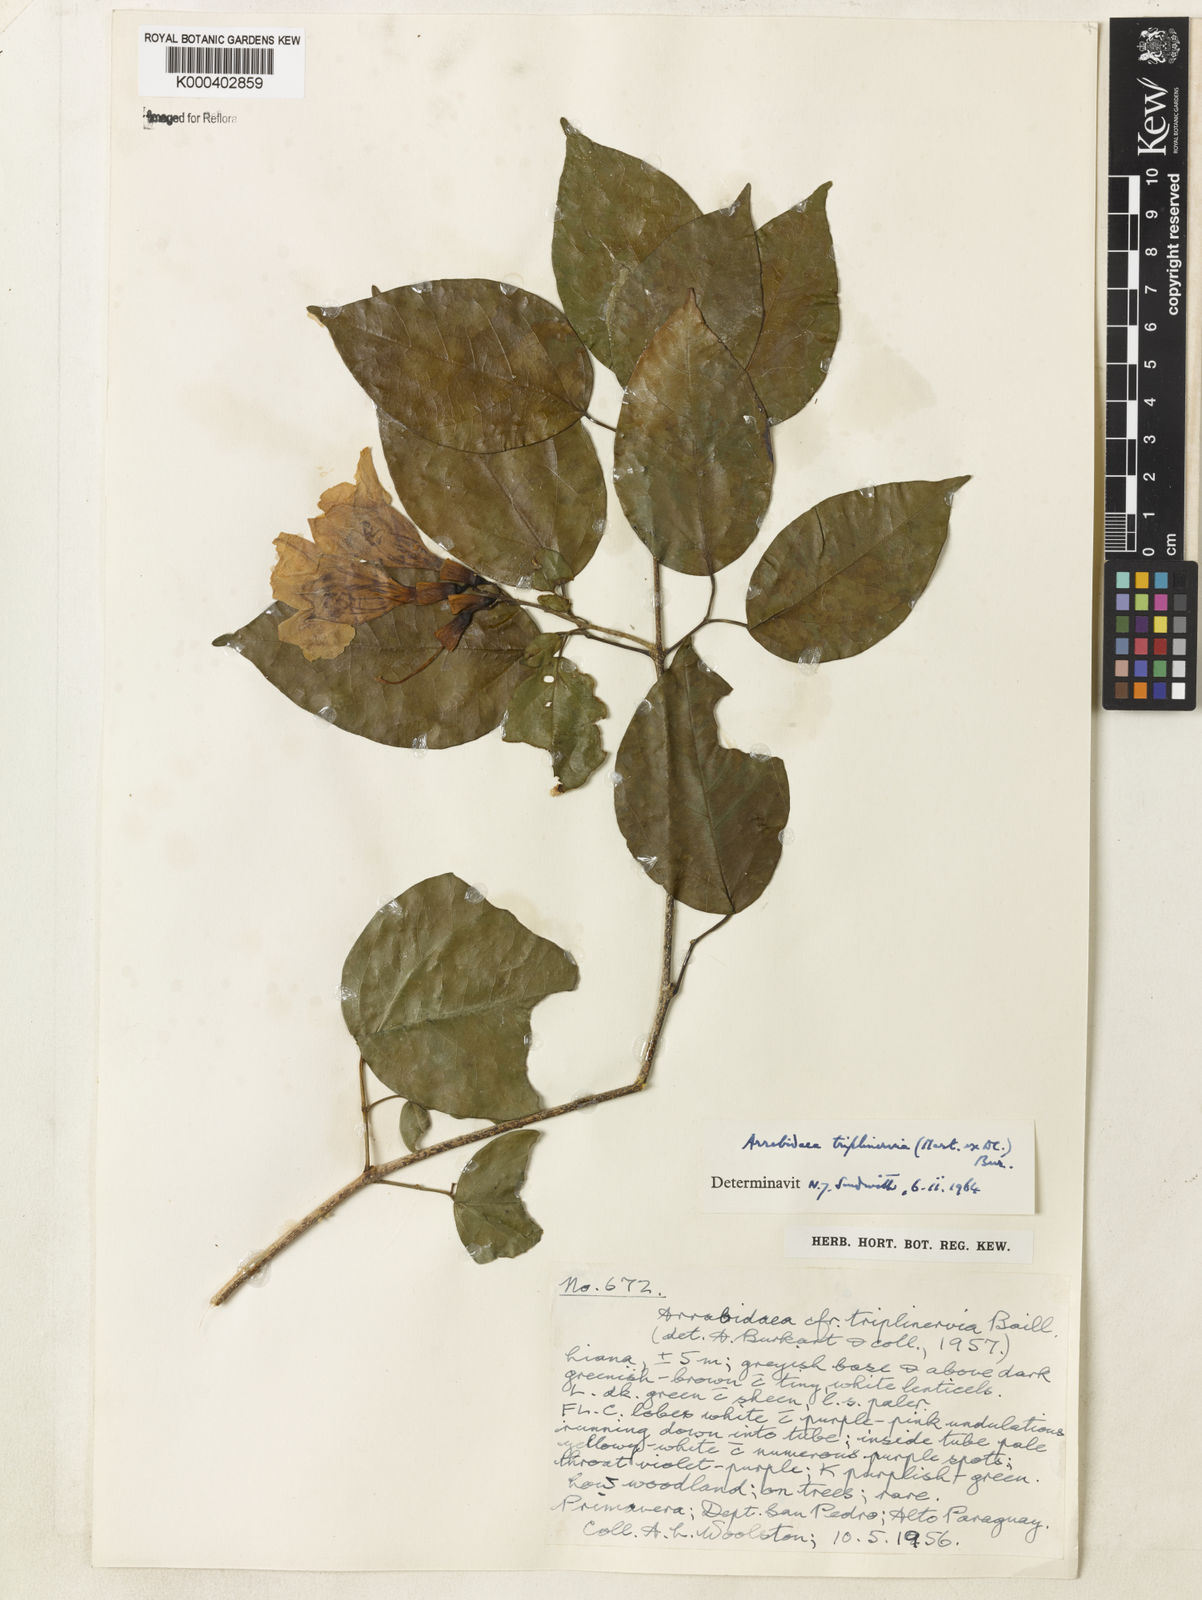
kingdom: Plantae
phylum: Tracheophyta
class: Magnoliopsida
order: Lamiales
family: Bignoniaceae
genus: Fridericia
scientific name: Fridericia triplinervia
